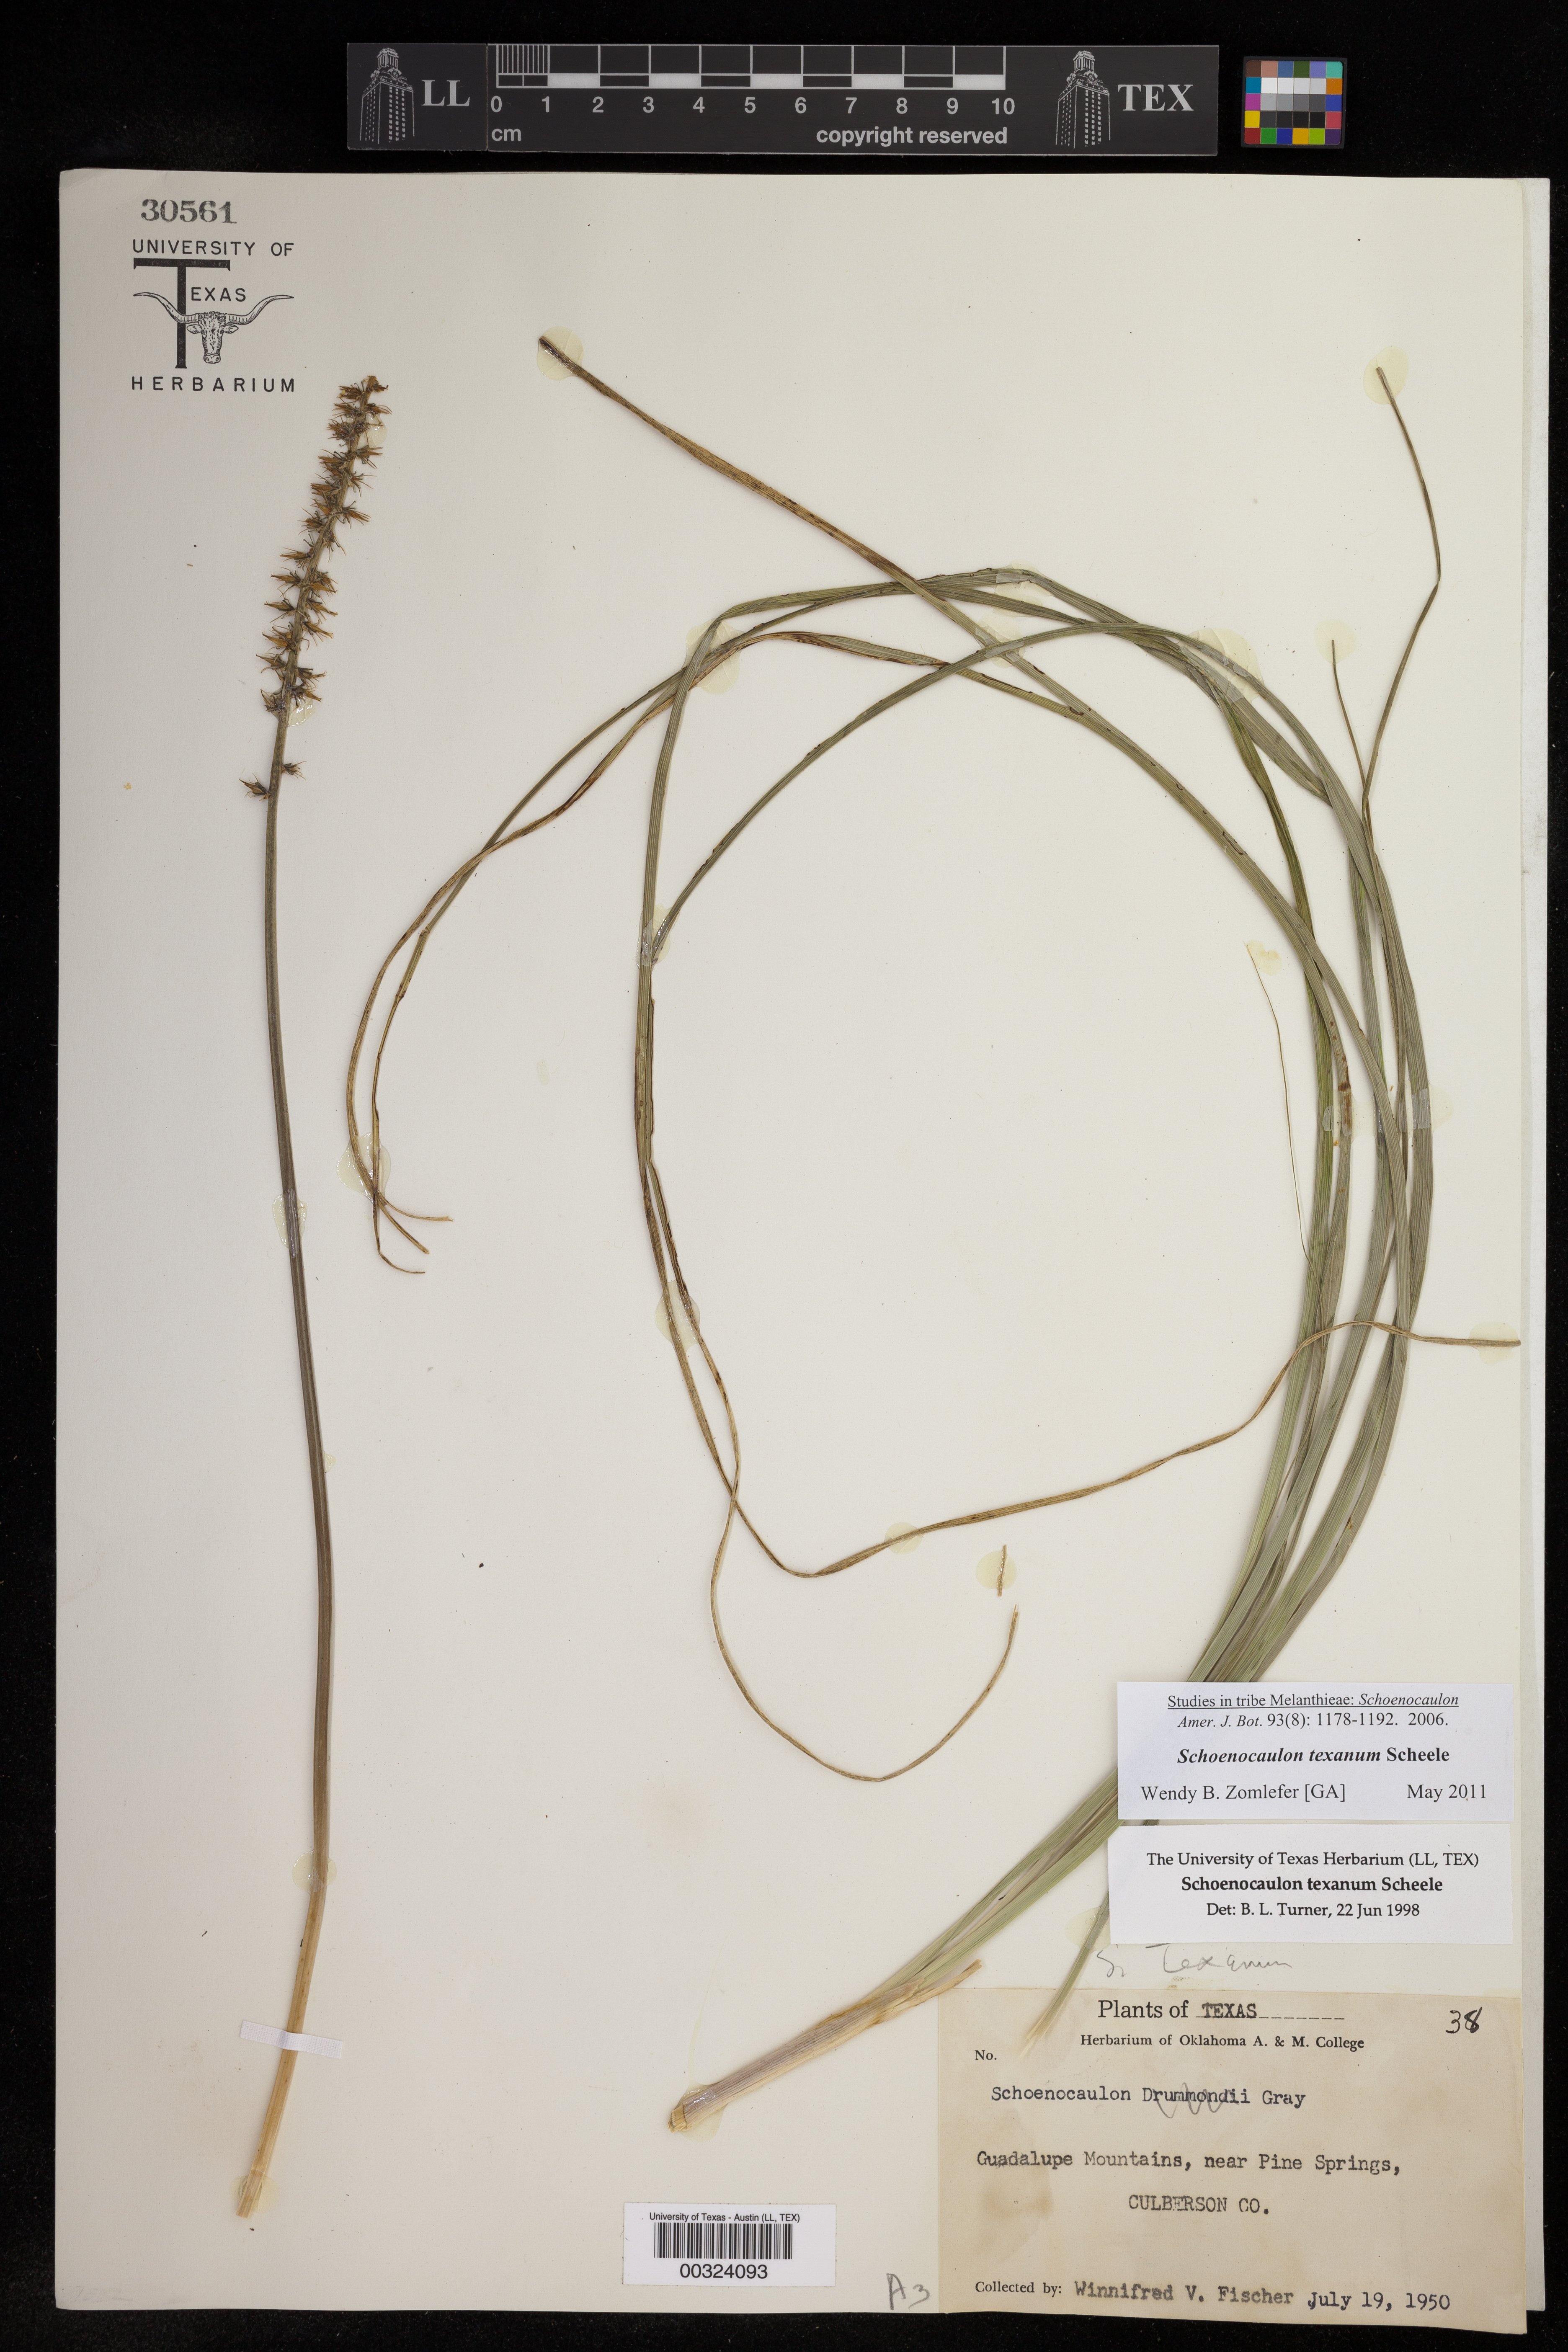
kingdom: Plantae
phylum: Tracheophyta
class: Liliopsida
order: Liliales
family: Melanthiaceae
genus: Schoenocaulon
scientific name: Schoenocaulon texanum
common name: Texas feather-shank
